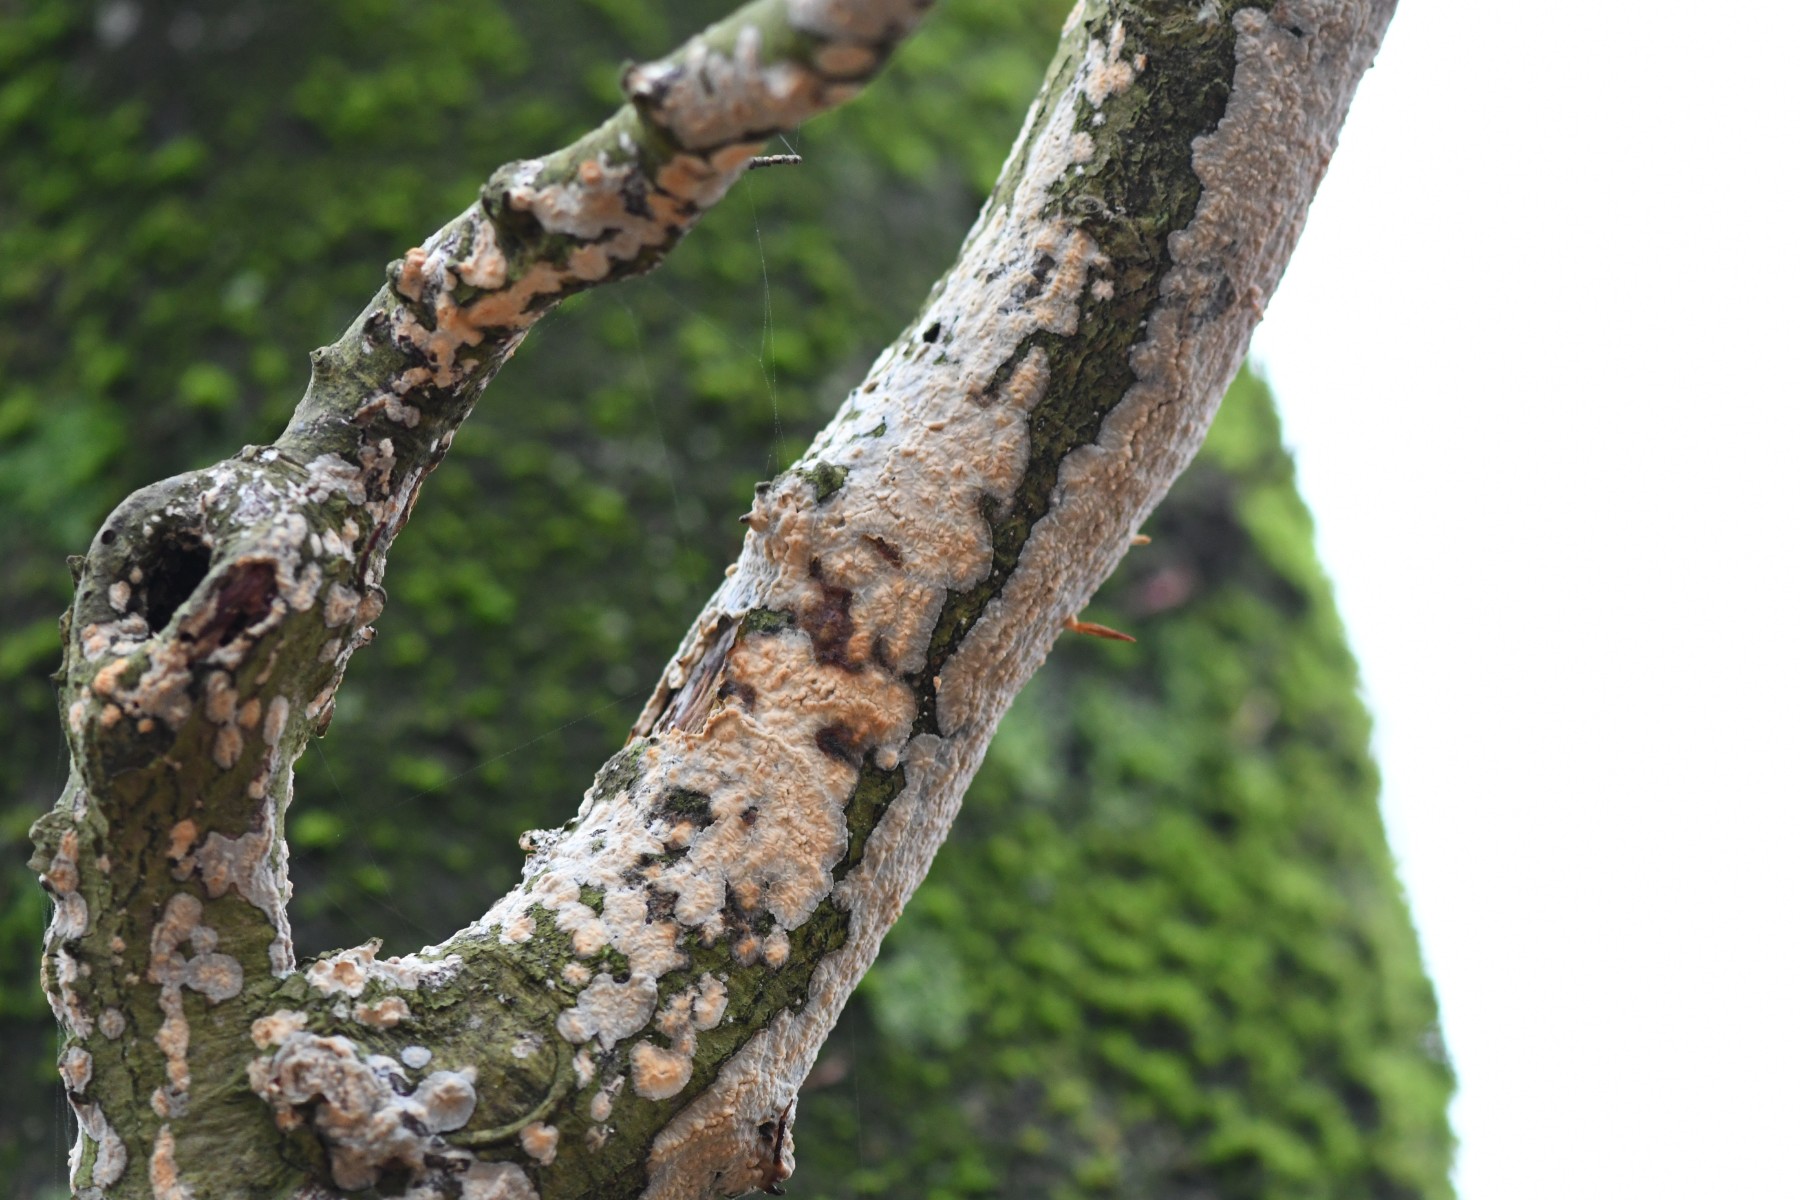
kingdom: Fungi
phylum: Basidiomycota
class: Agaricomycetes
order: Polyporales
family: Meruliaceae
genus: Phlebia
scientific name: Phlebia radiata
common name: stråle-åresvamp
